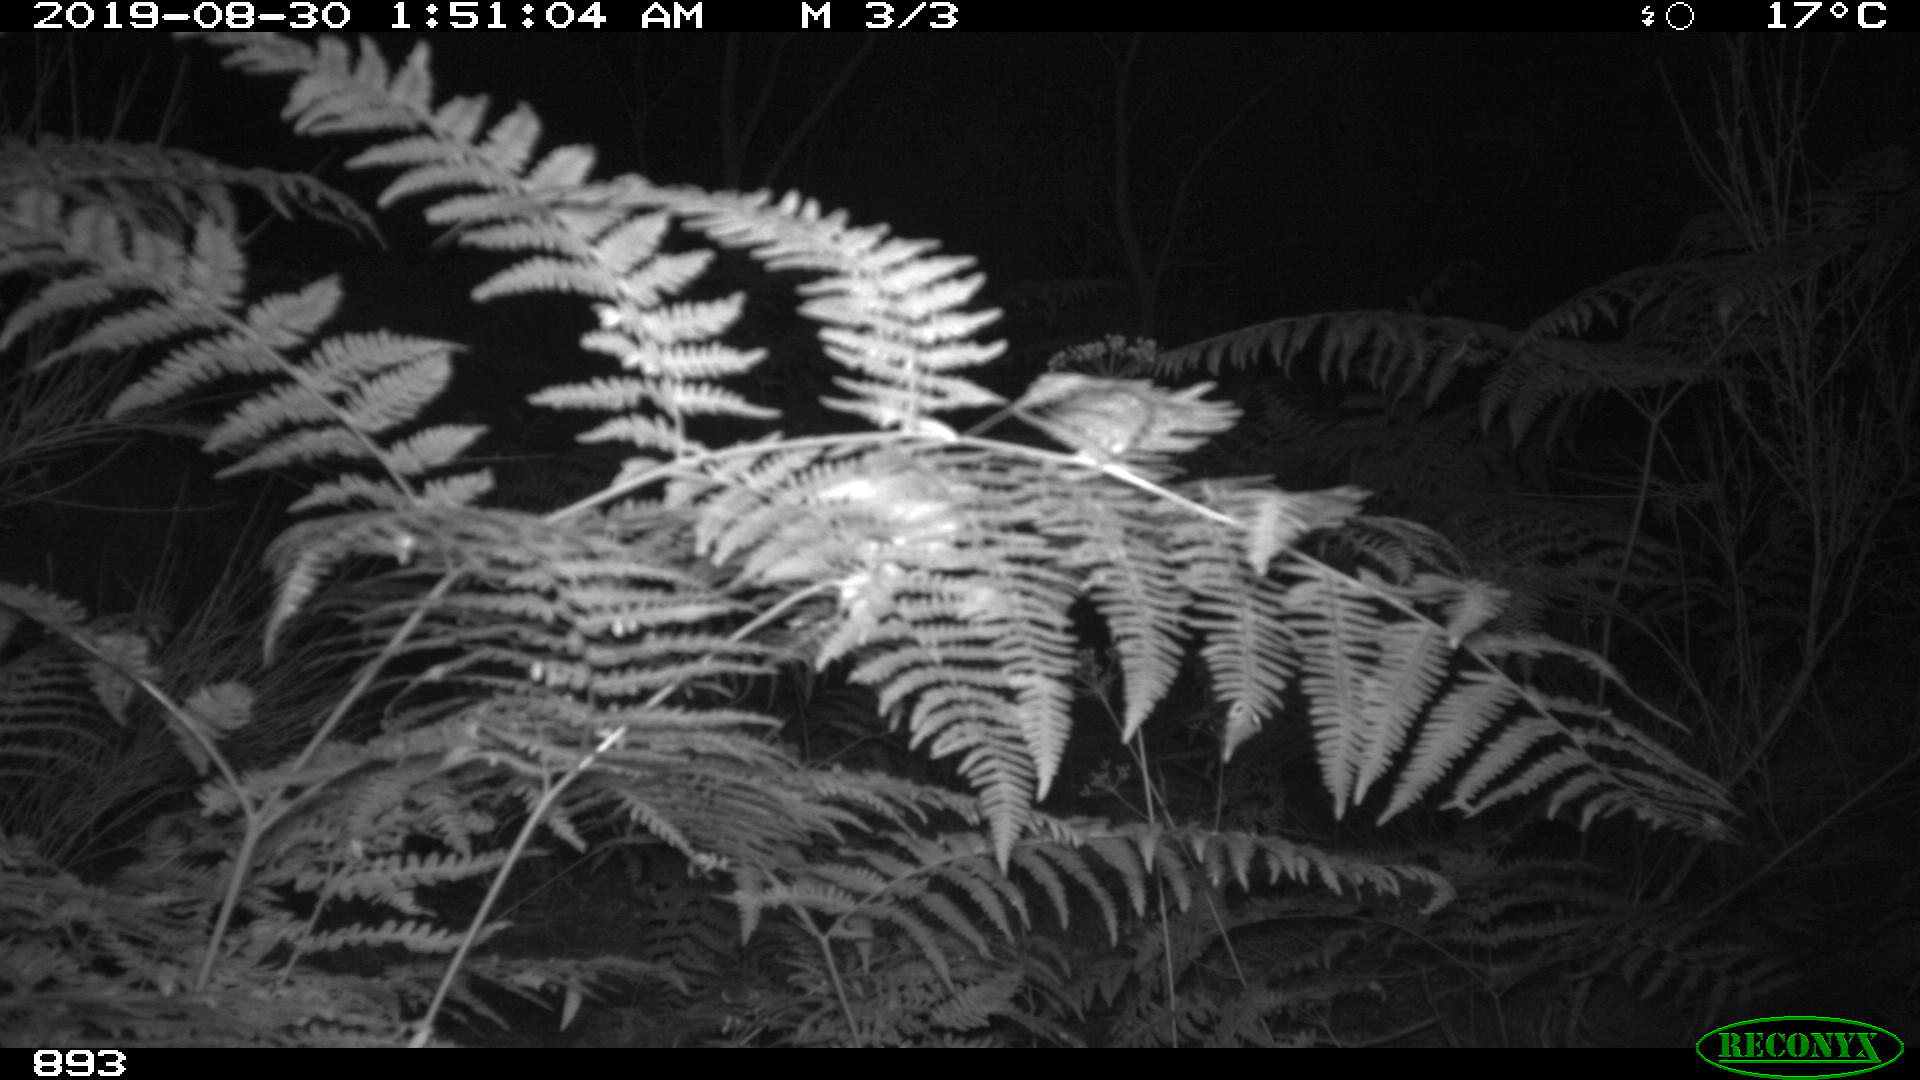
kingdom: Animalia
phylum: Chordata
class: Mammalia
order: Artiodactyla
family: Suidae
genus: Sus
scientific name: Sus scrofa
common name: Wild boar
